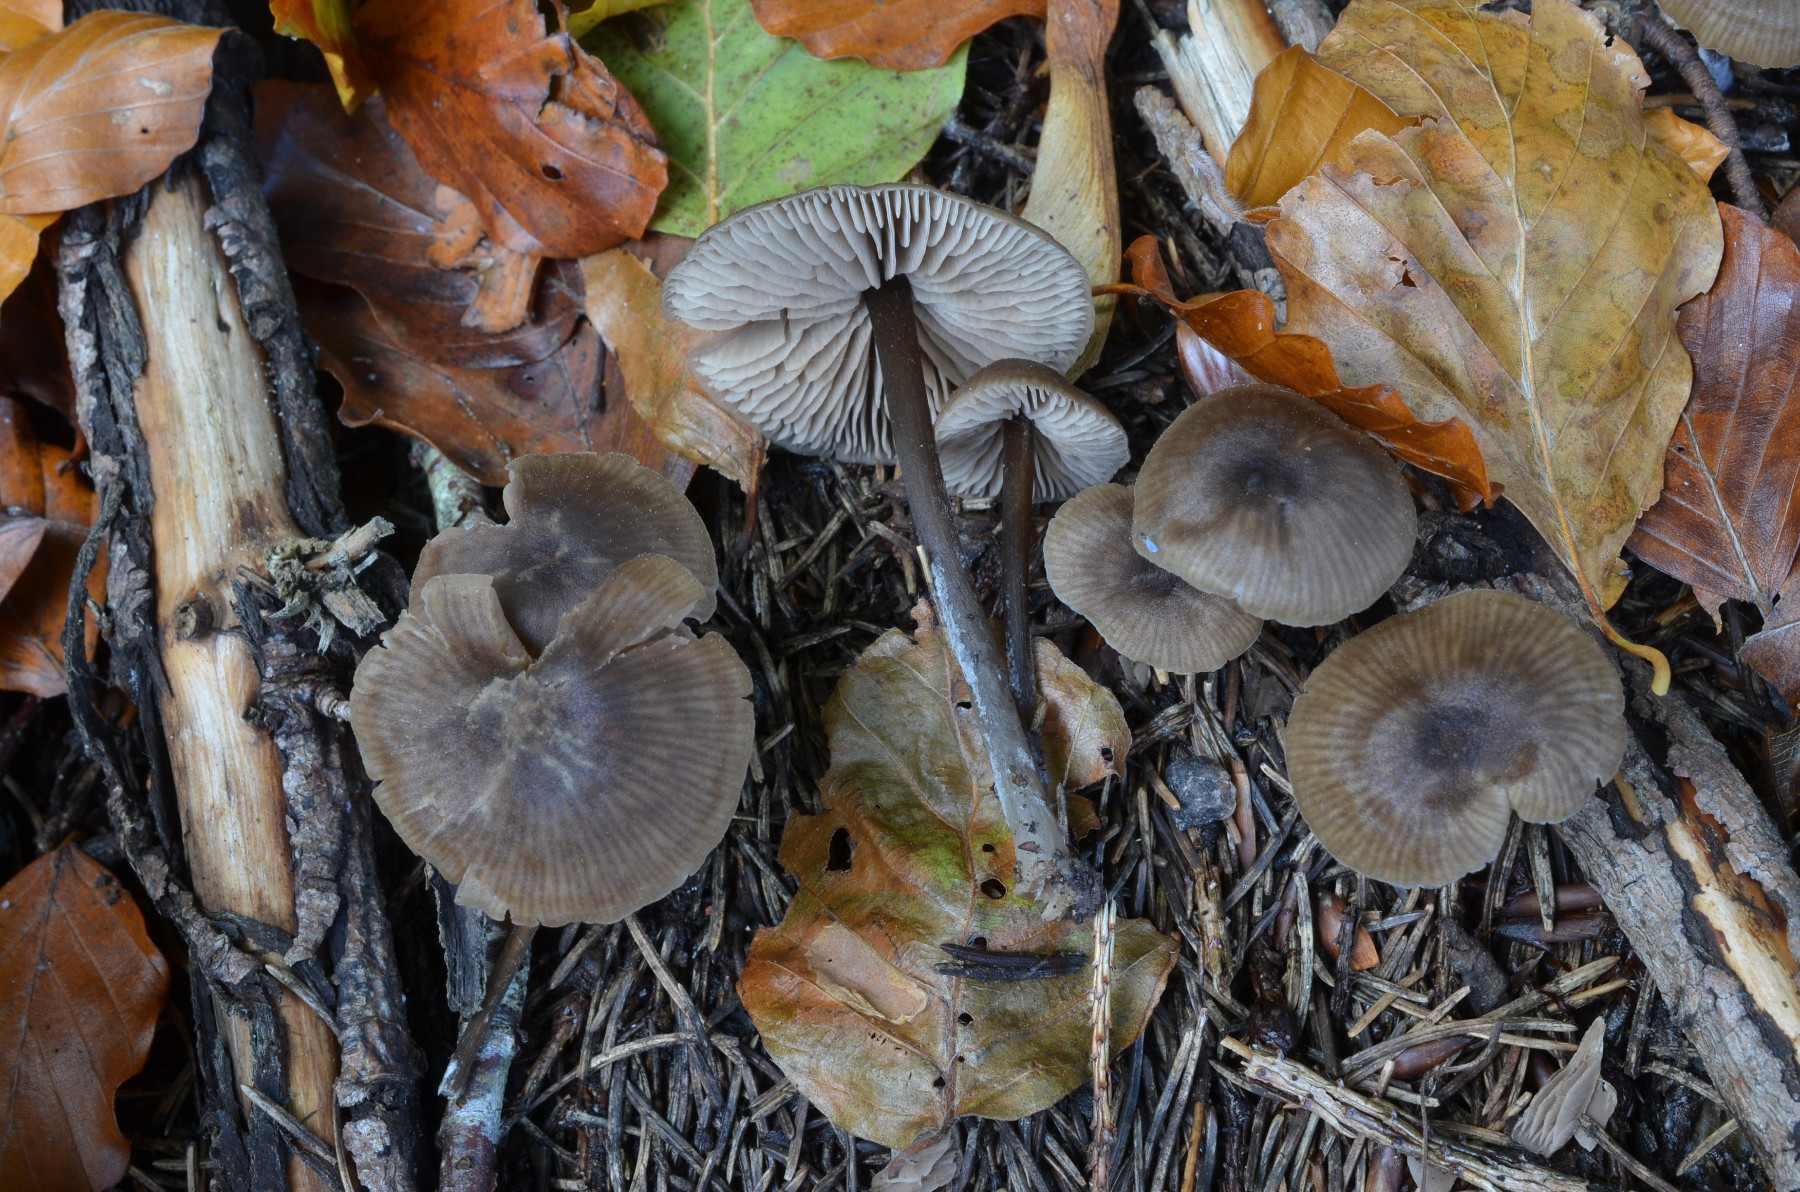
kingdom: Fungi
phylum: Basidiomycota
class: Agaricomycetes
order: Agaricales
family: Entolomataceae
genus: Entoloma
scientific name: Entoloma minutum
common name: liden rødblad
